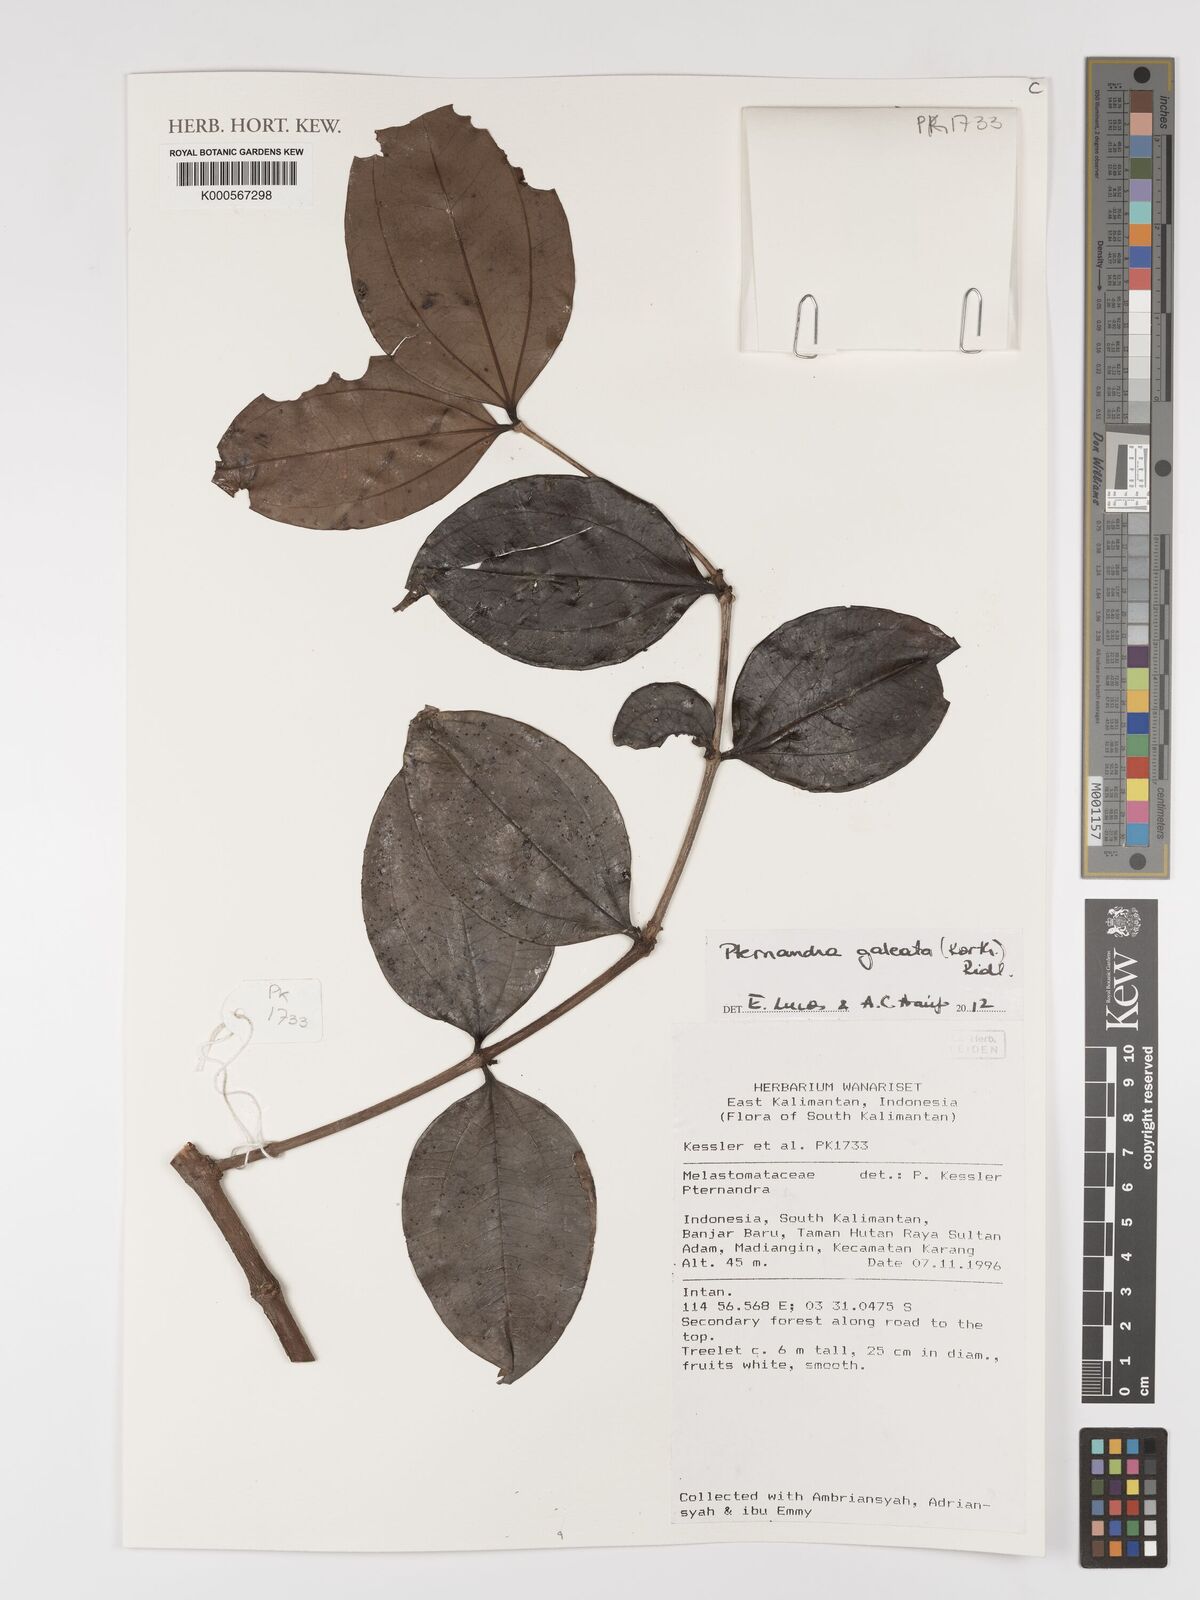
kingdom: Plantae
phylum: Tracheophyta
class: Magnoliopsida
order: Myrtales
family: Melastomataceae
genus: Pternandra
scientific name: Pternandra galeata
